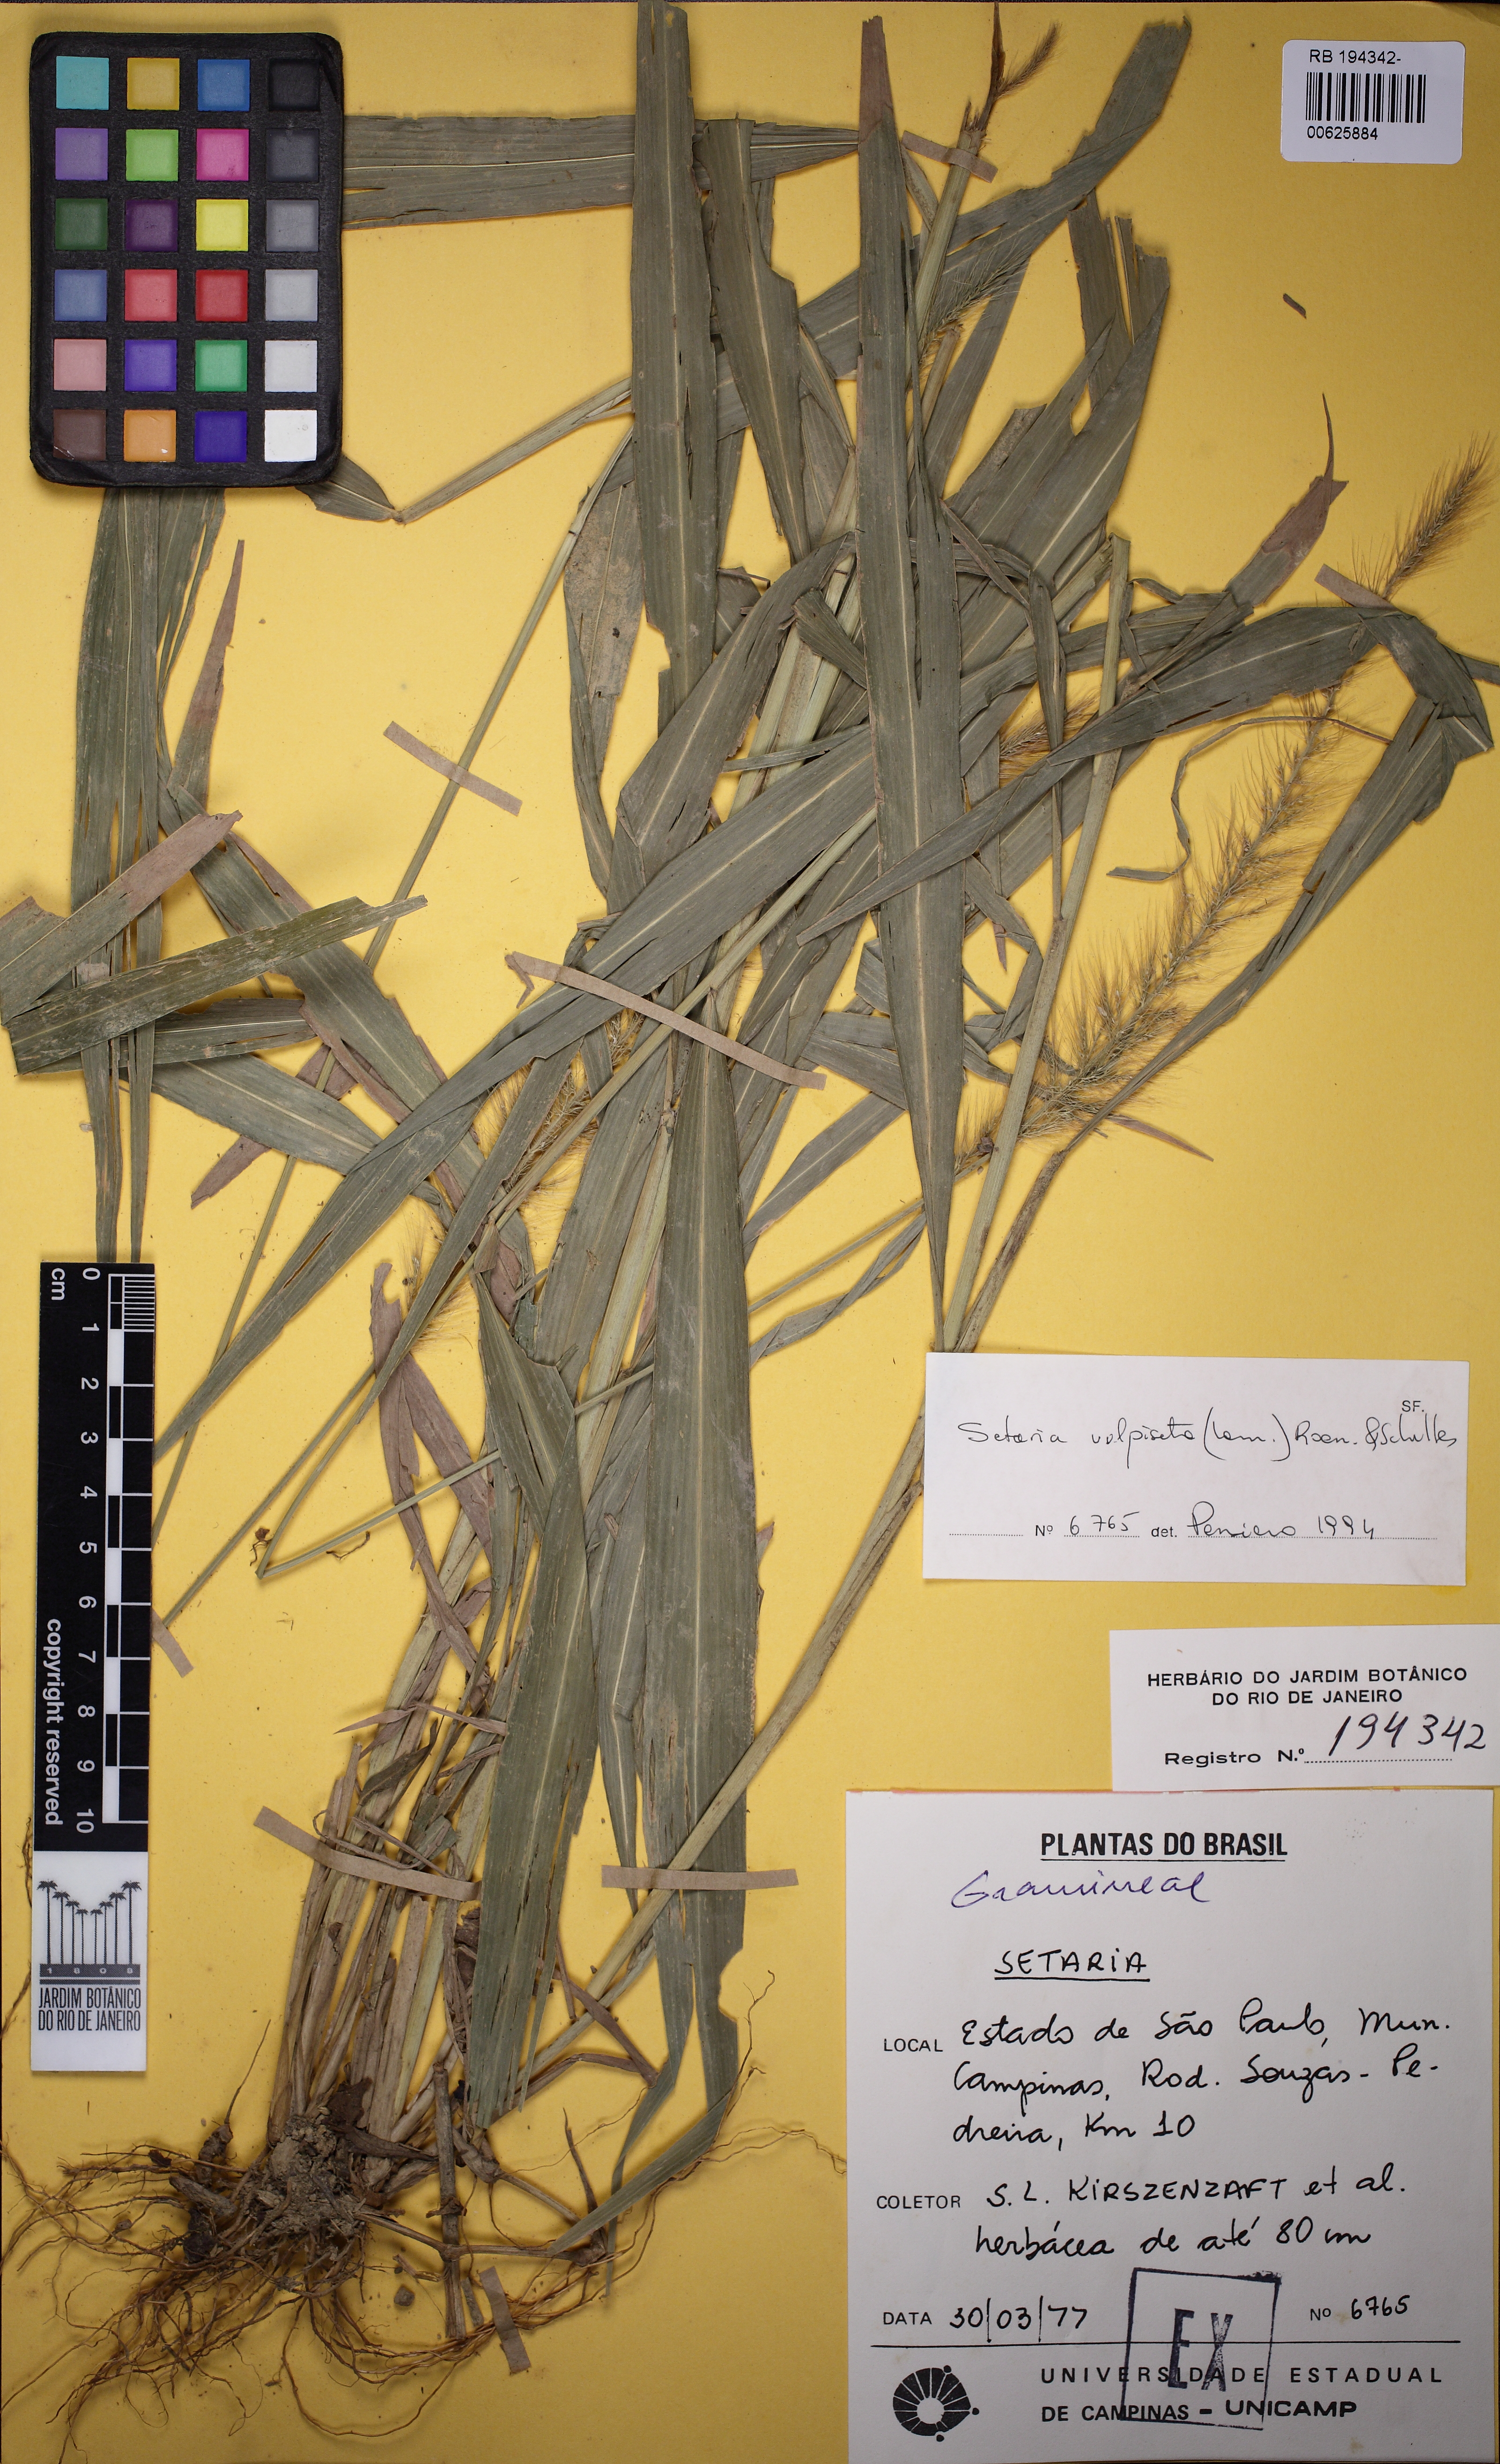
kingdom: Plantae
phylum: Tracheophyta
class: Liliopsida
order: Poales
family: Poaceae
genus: Setaria
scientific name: Setaria vulpiseta
